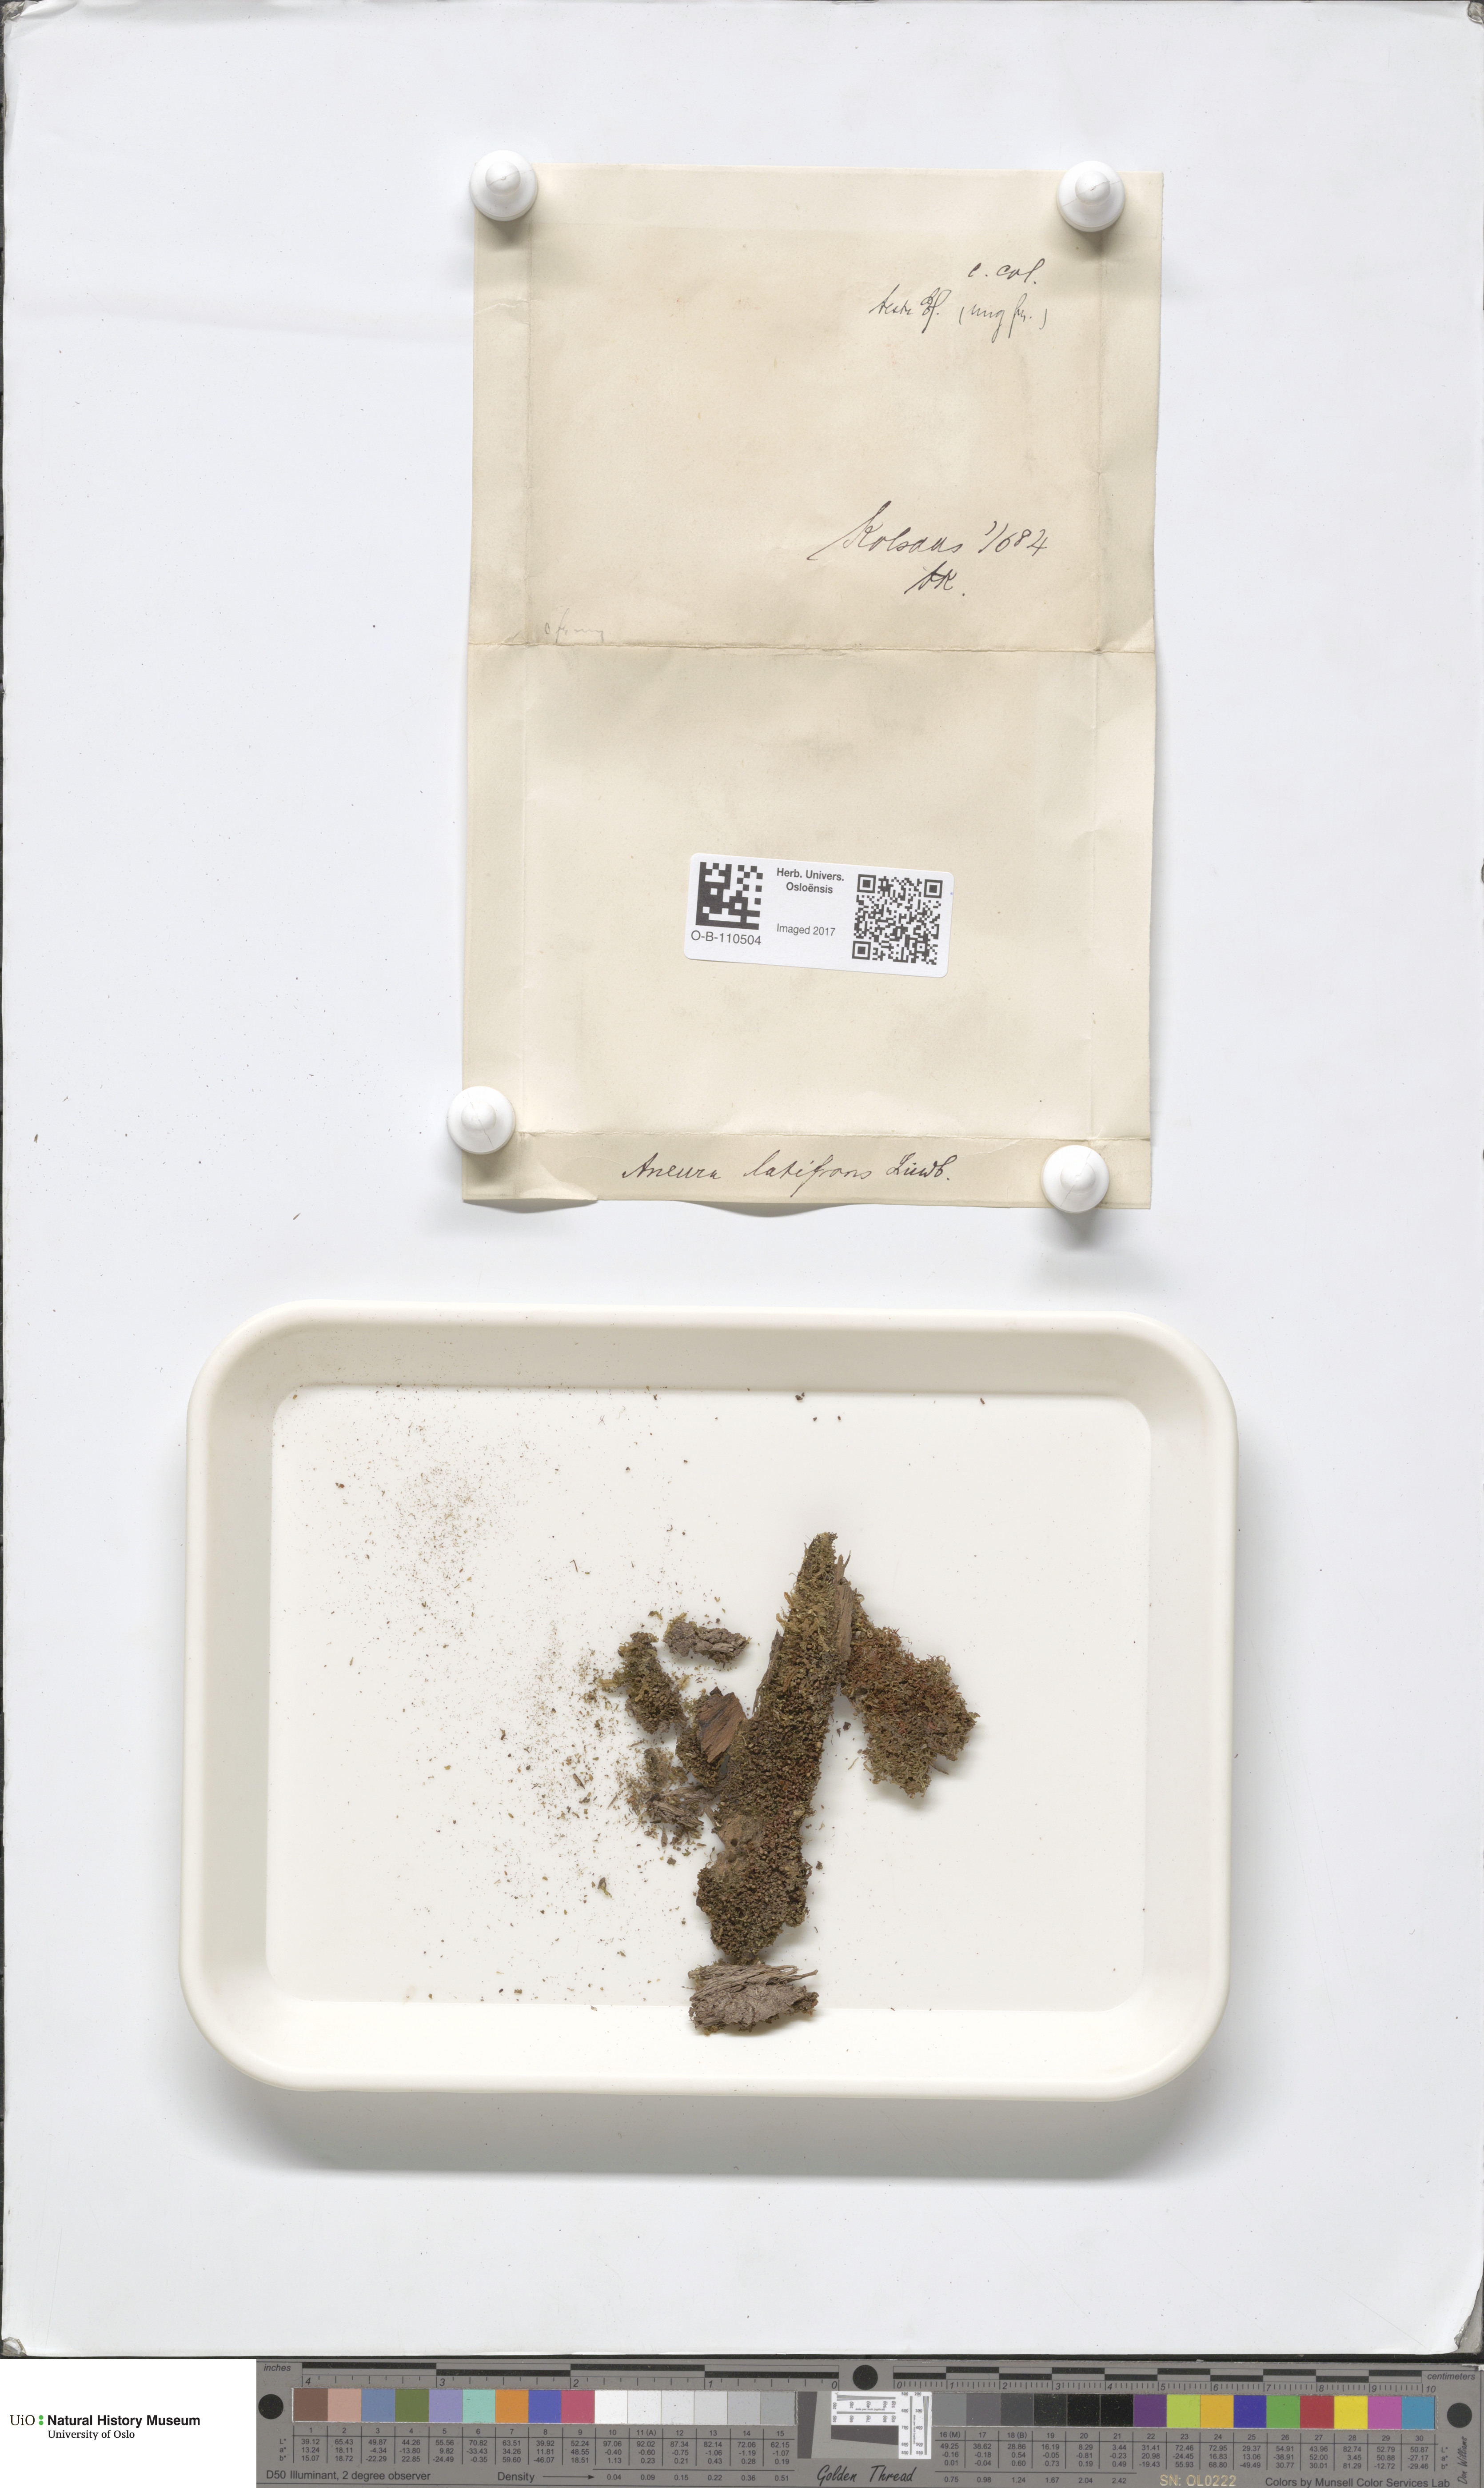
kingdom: Plantae
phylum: Marchantiophyta
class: Jungermanniopsida
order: Metzgeriales
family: Aneuraceae
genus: Riccardia
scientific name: Riccardia latifrons
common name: Bog germanderwort
